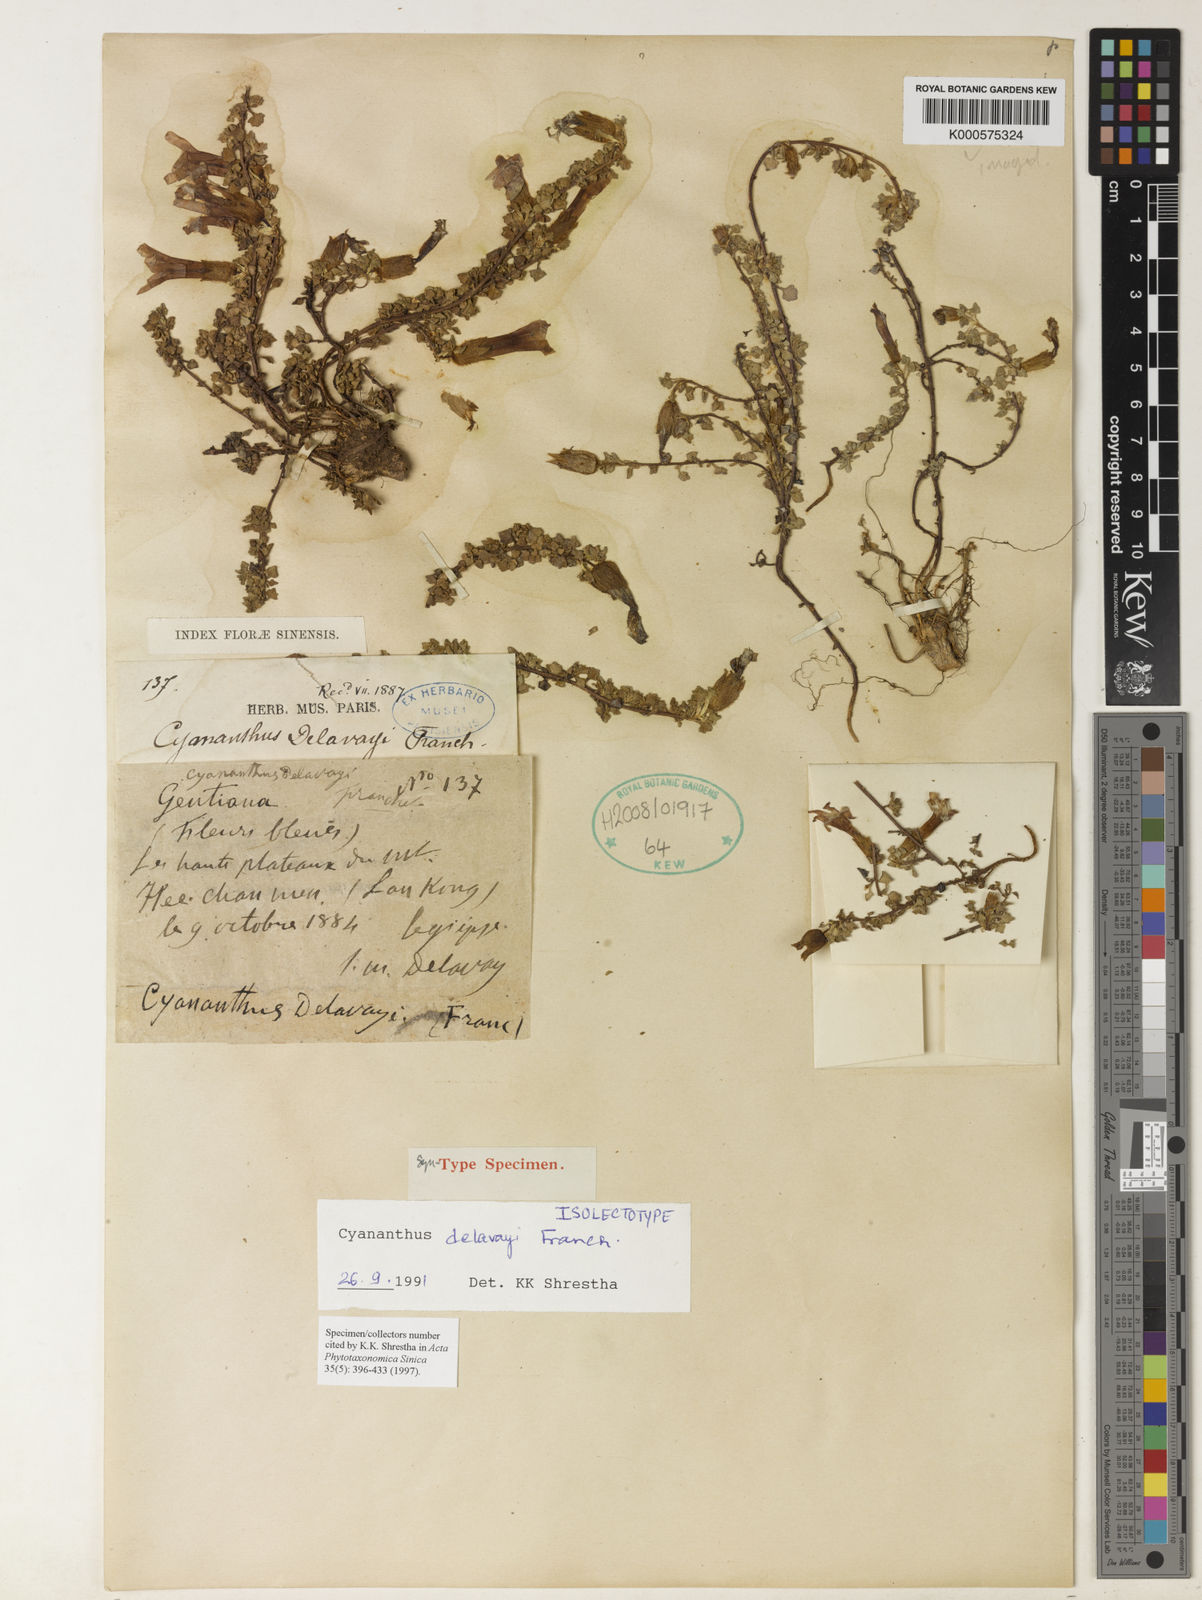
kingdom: Plantae
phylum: Tracheophyta
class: Magnoliopsida
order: Asterales
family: Campanulaceae
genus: Cyananthus
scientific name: Cyananthus delavayi
